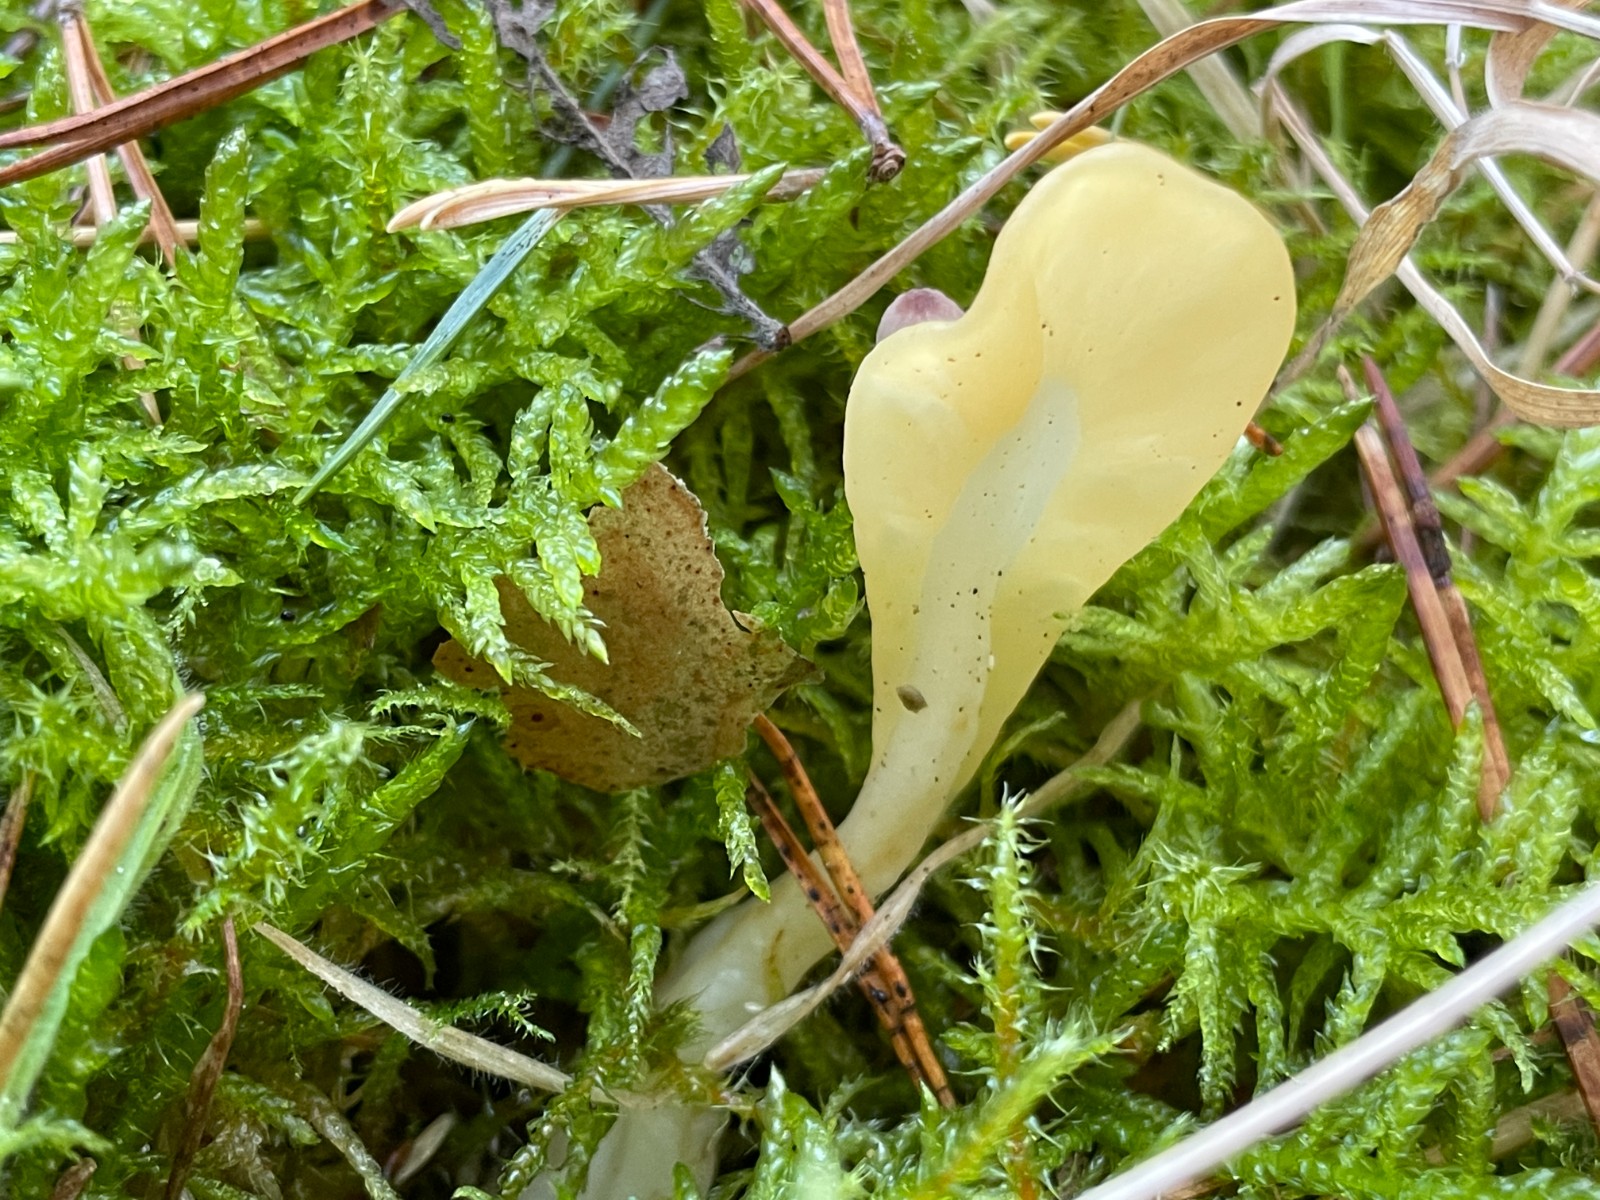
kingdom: Fungi
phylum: Ascomycota
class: Leotiomycetes
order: Rhytismatales
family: Cudoniaceae
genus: Spathularia
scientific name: Spathularia flavida
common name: gul spatelsvamp
